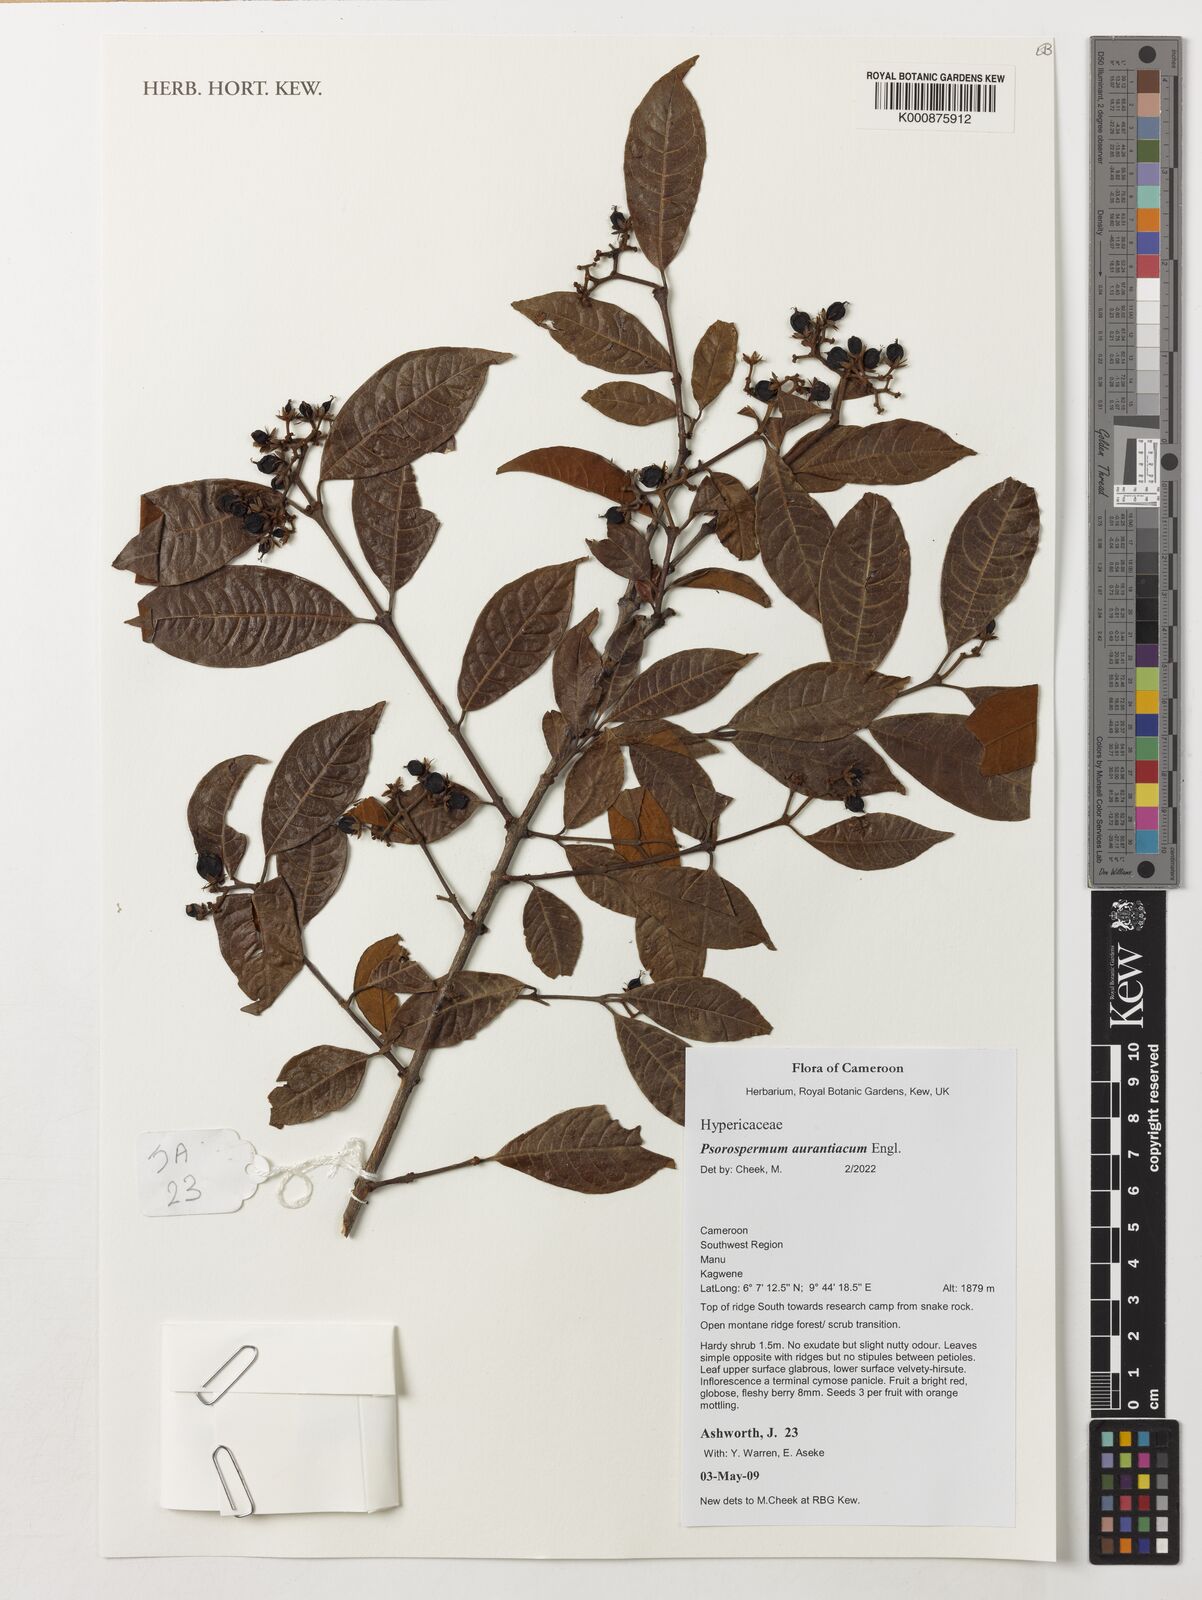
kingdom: Plantae
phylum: Tracheophyta
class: Magnoliopsida
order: Malpighiales
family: Hypericaceae
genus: Psorospermum
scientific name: Psorospermum aurantiacum
